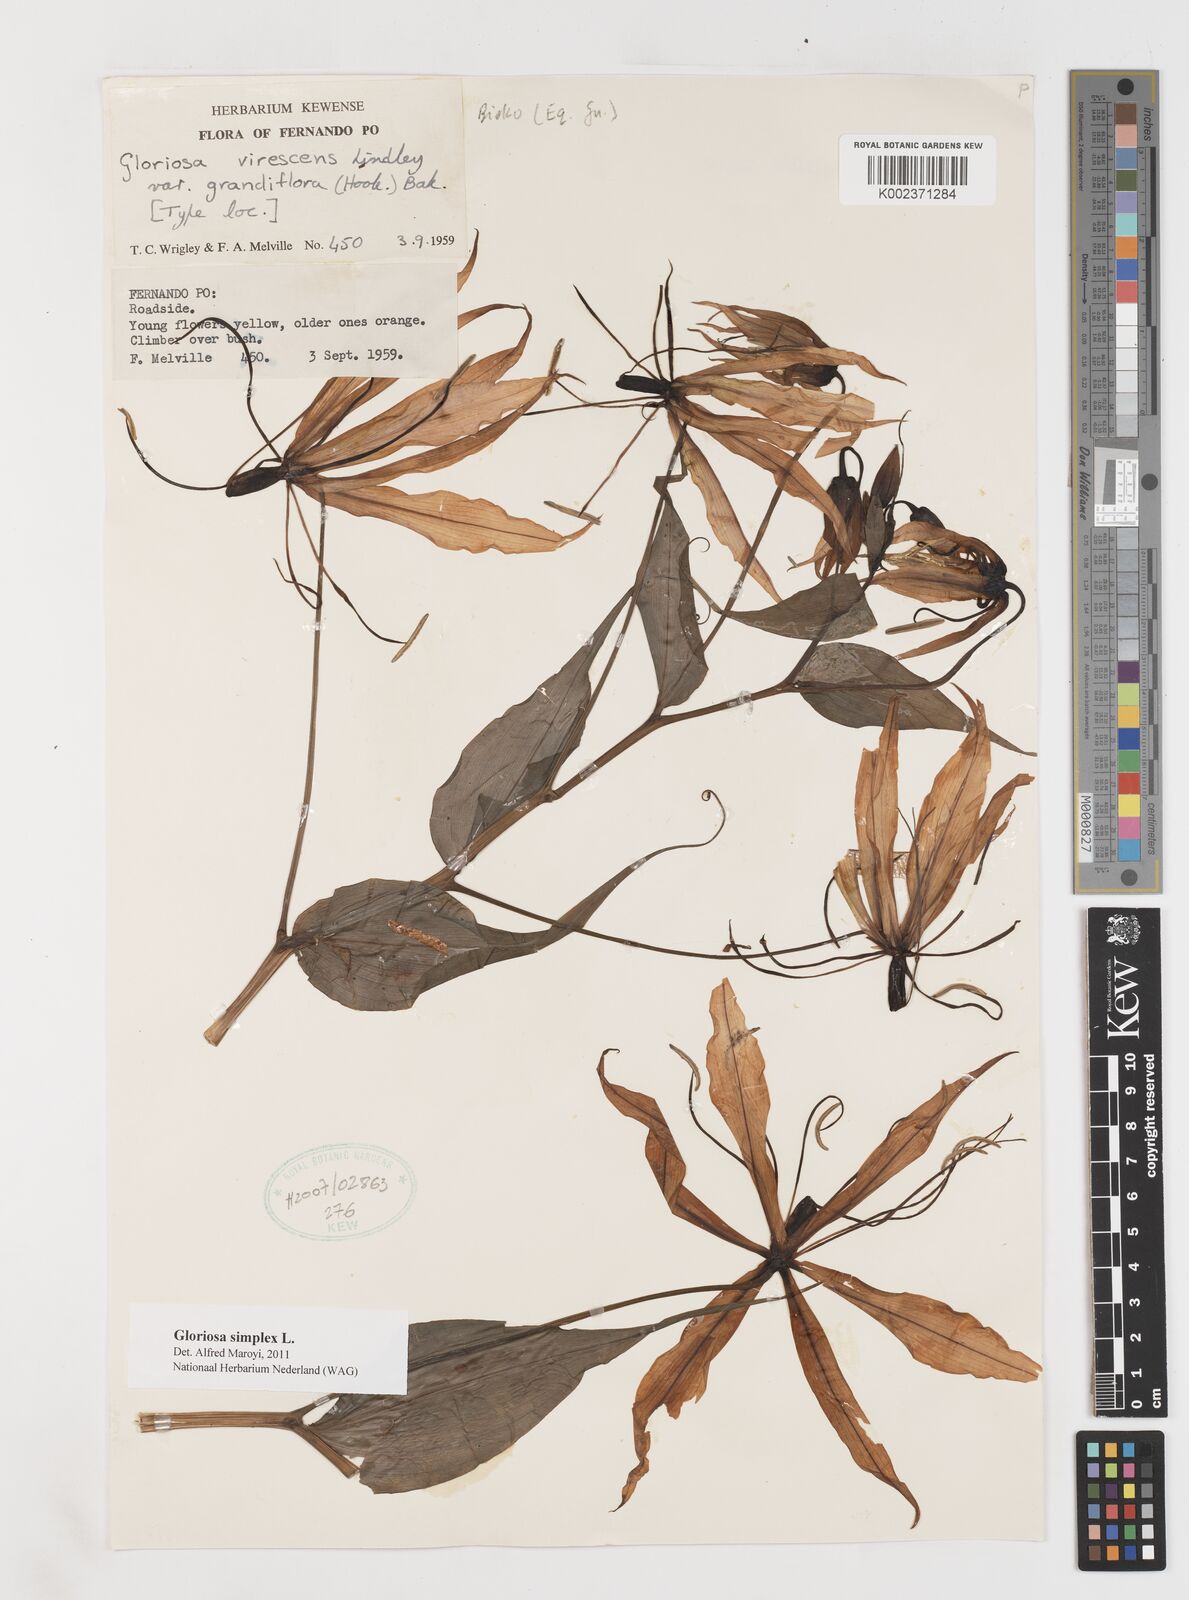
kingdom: Plantae
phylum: Tracheophyta
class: Liliopsida
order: Liliales
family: Colchicaceae
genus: Gloriosa
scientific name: Gloriosa simplex
